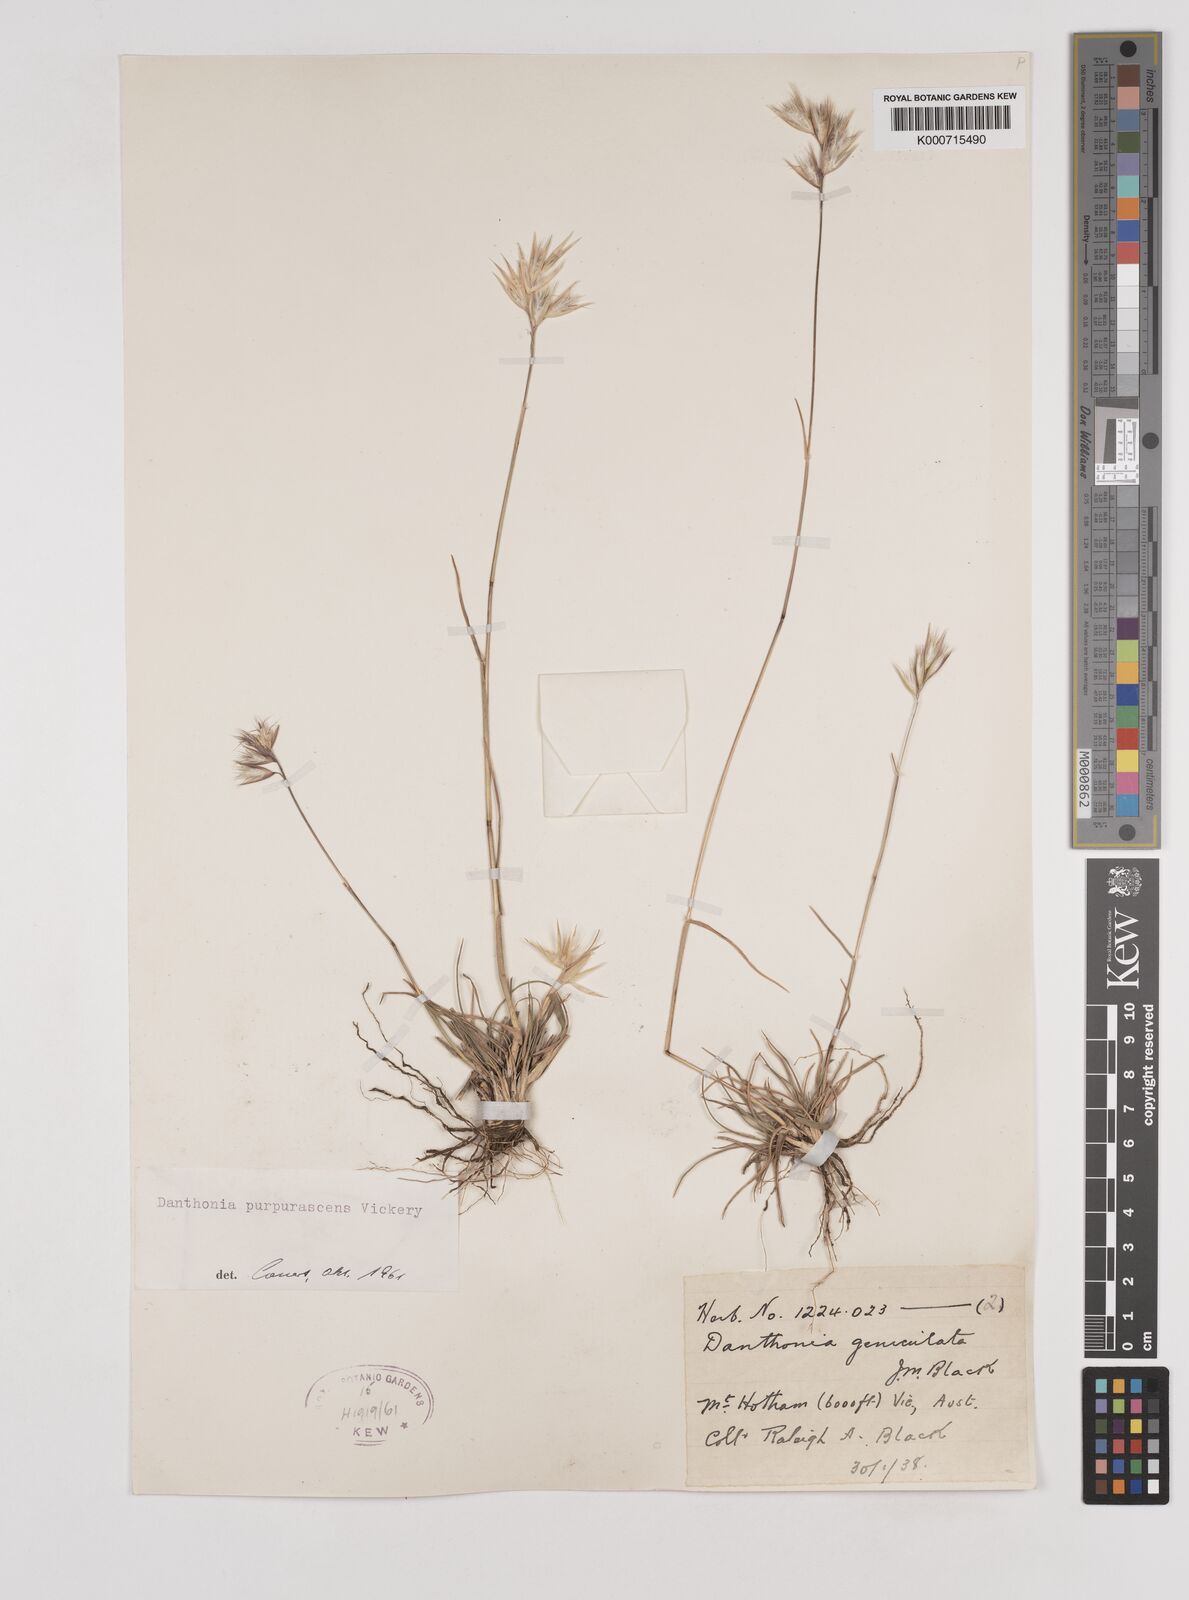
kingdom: Plantae
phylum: Tracheophyta
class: Liliopsida
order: Poales
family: Poaceae
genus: Rytidosperma
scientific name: Rytidosperma tenuius
